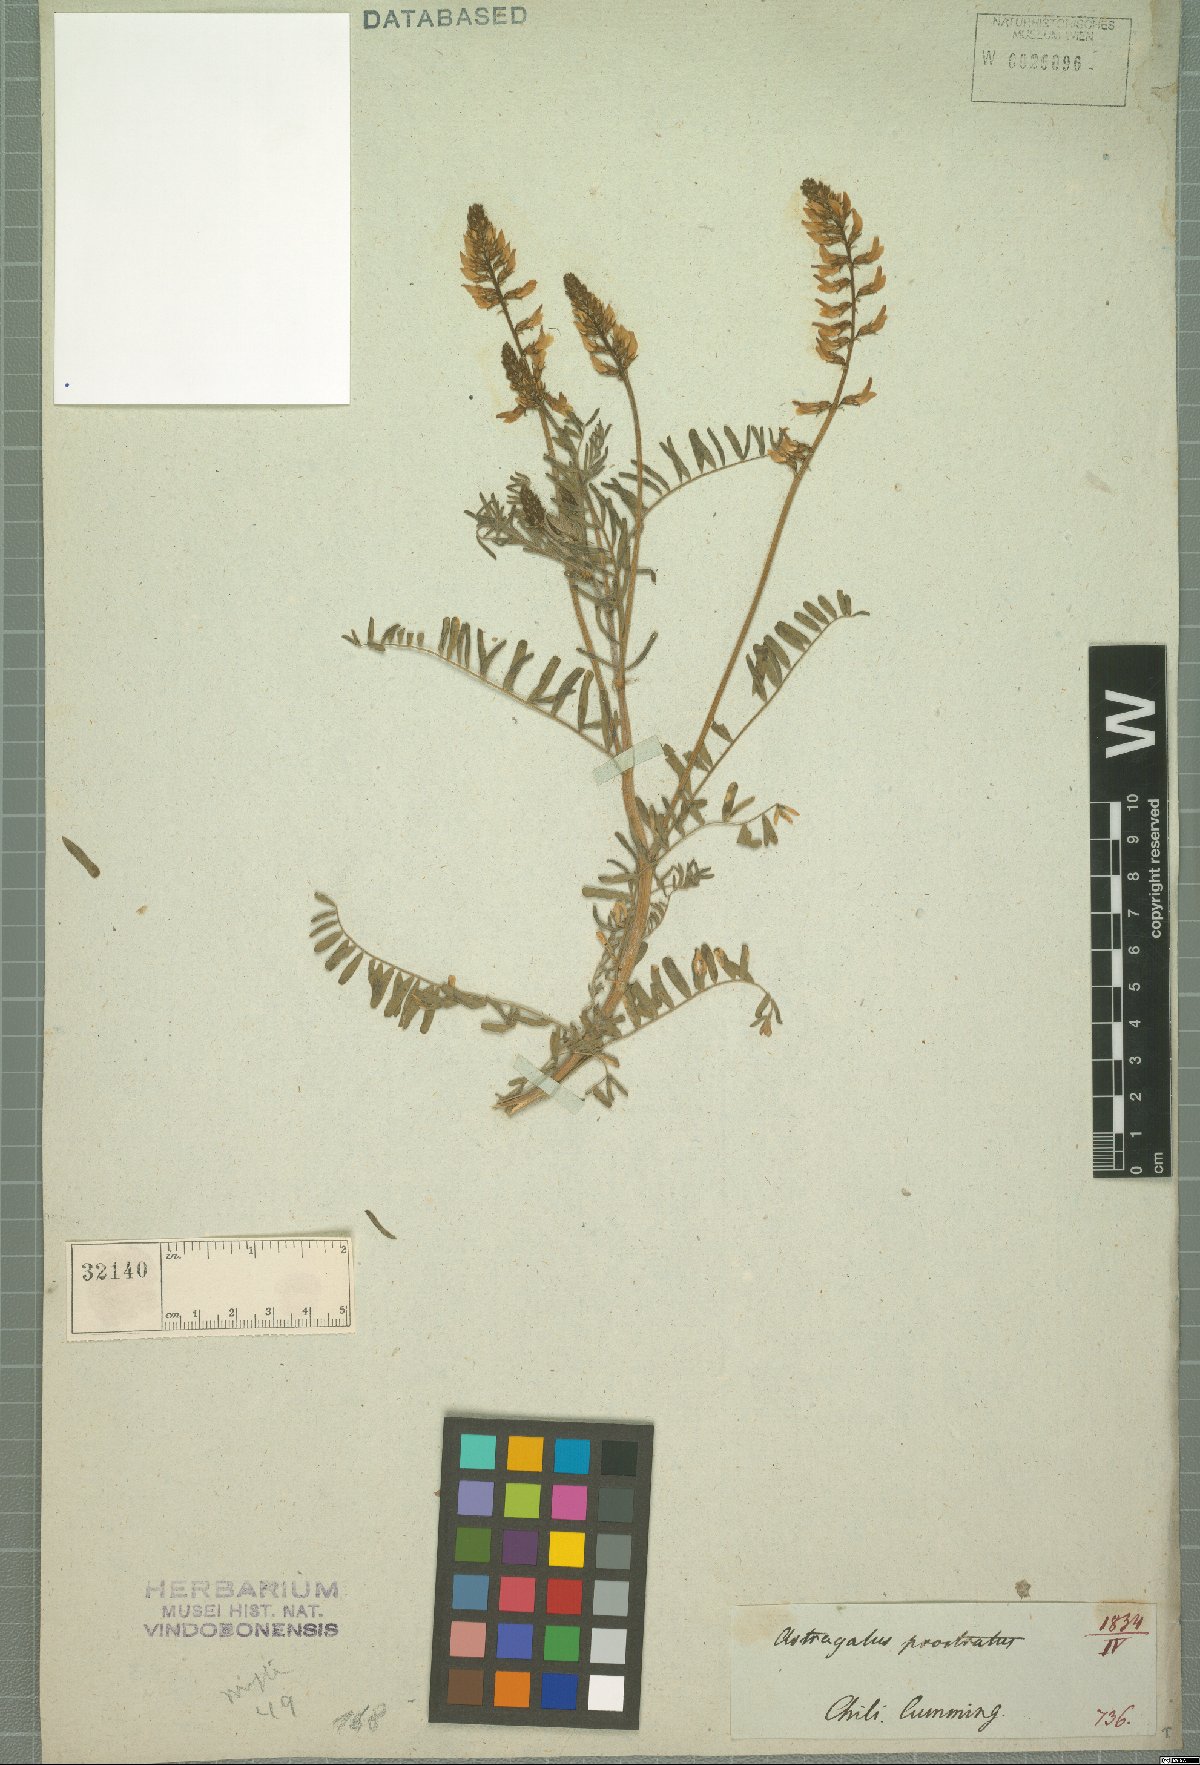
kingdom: Plantae
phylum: Tracheophyta
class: Magnoliopsida
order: Fabales
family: Fabaceae
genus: Astragalus
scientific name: Astragalus berteroi
